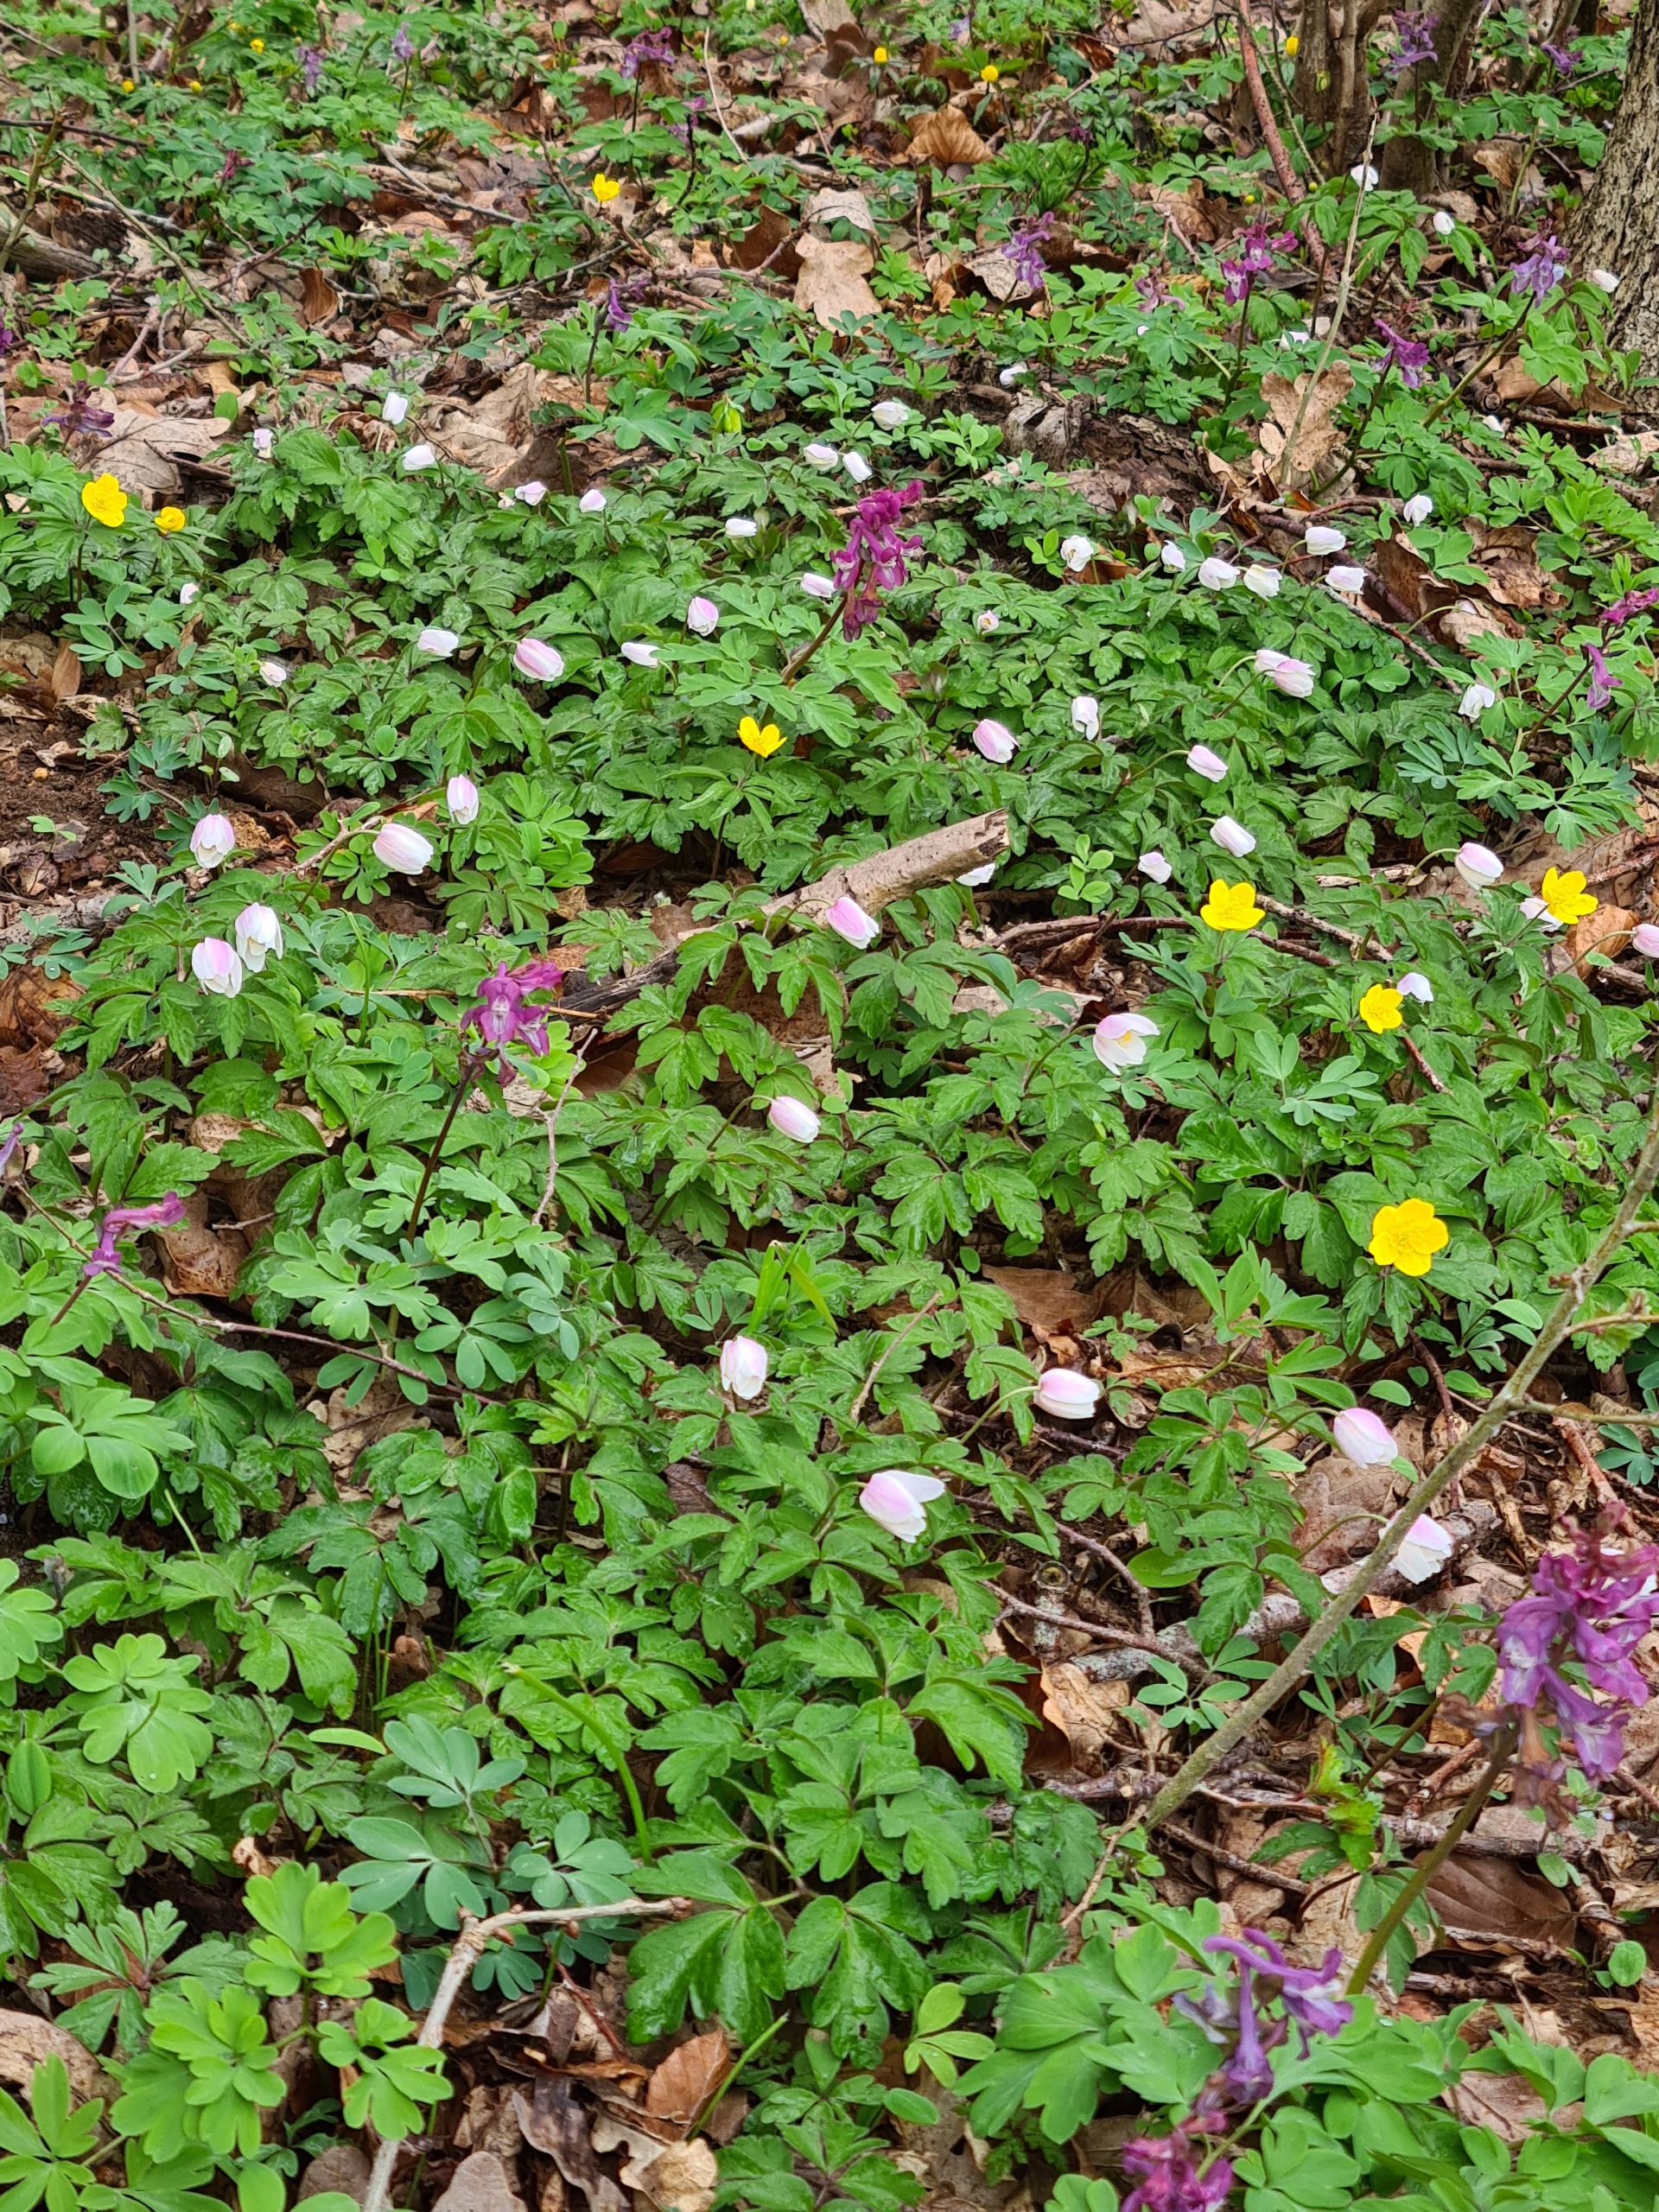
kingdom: Plantae
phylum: Tracheophyta
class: Magnoliopsida
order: Ranunculales
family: Ranunculaceae
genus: Anemone
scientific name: Anemone nemorosa
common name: Hvid anemone
